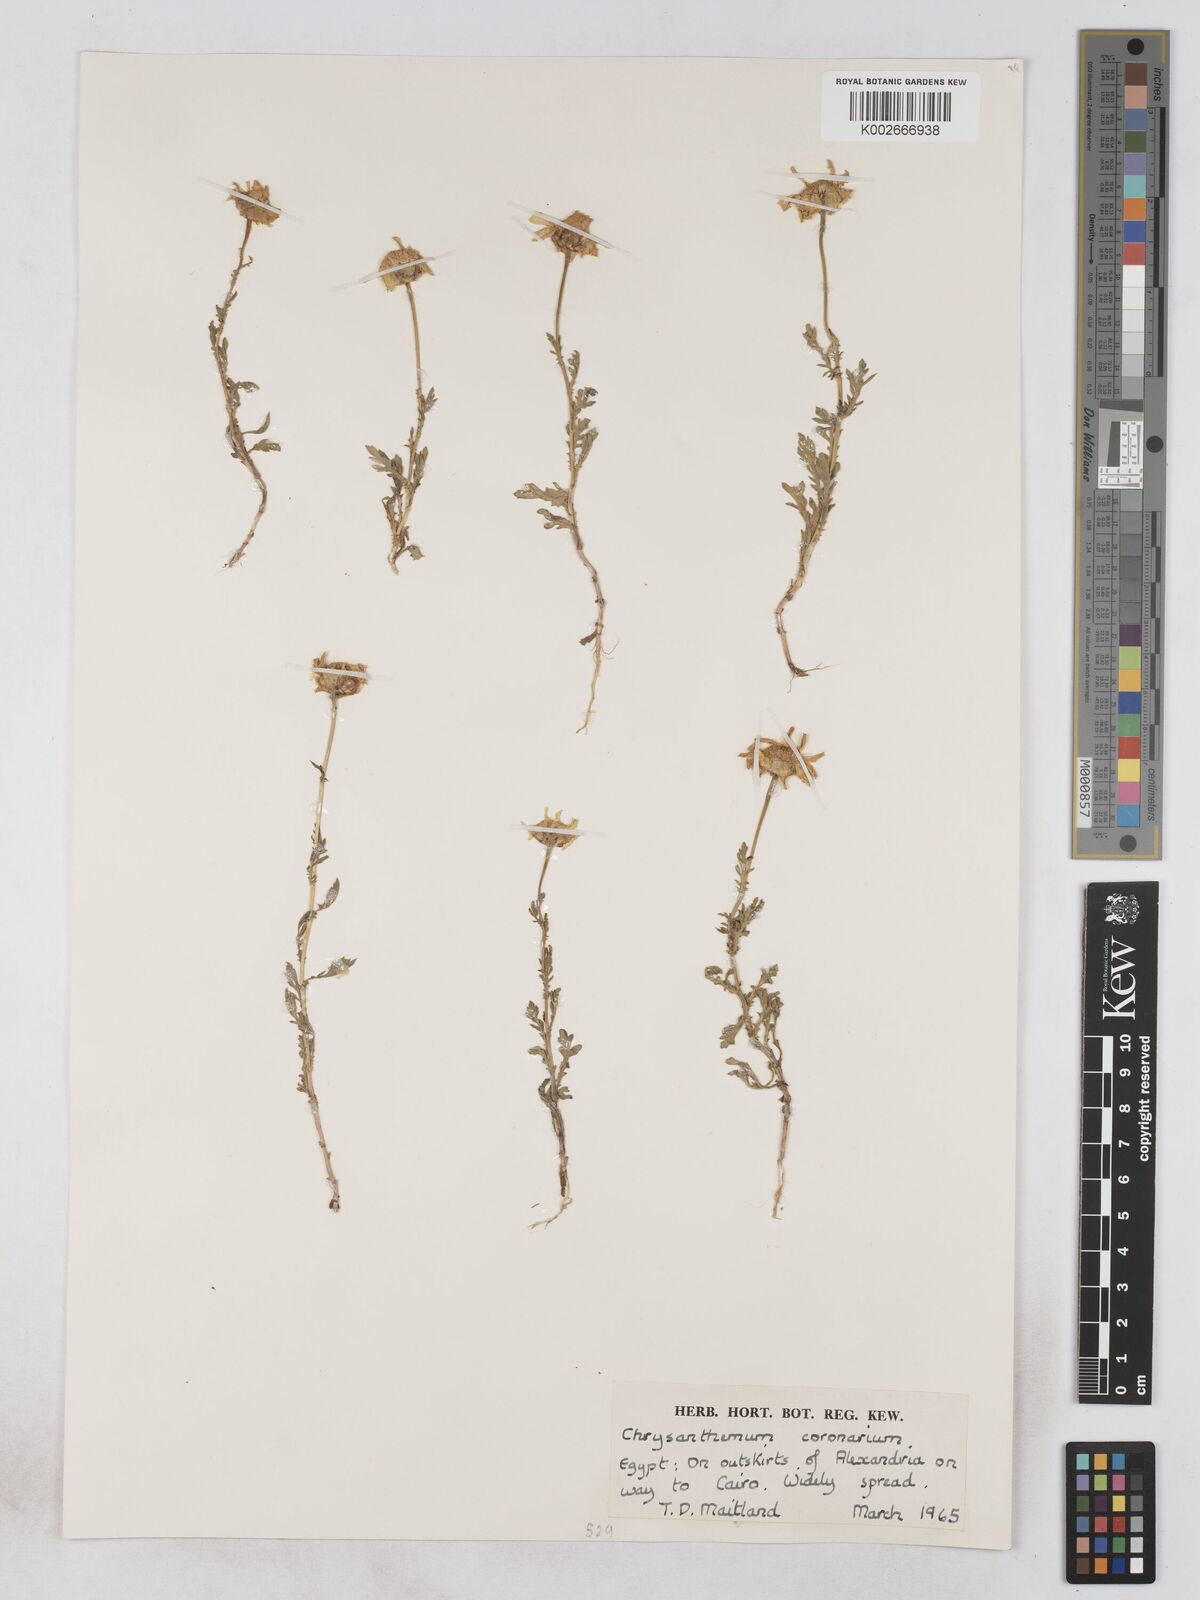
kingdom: Plantae
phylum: Tracheophyta
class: Magnoliopsida
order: Asterales
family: Asteraceae
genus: Glebionis
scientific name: Glebionis coronaria
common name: Crowndaisy
